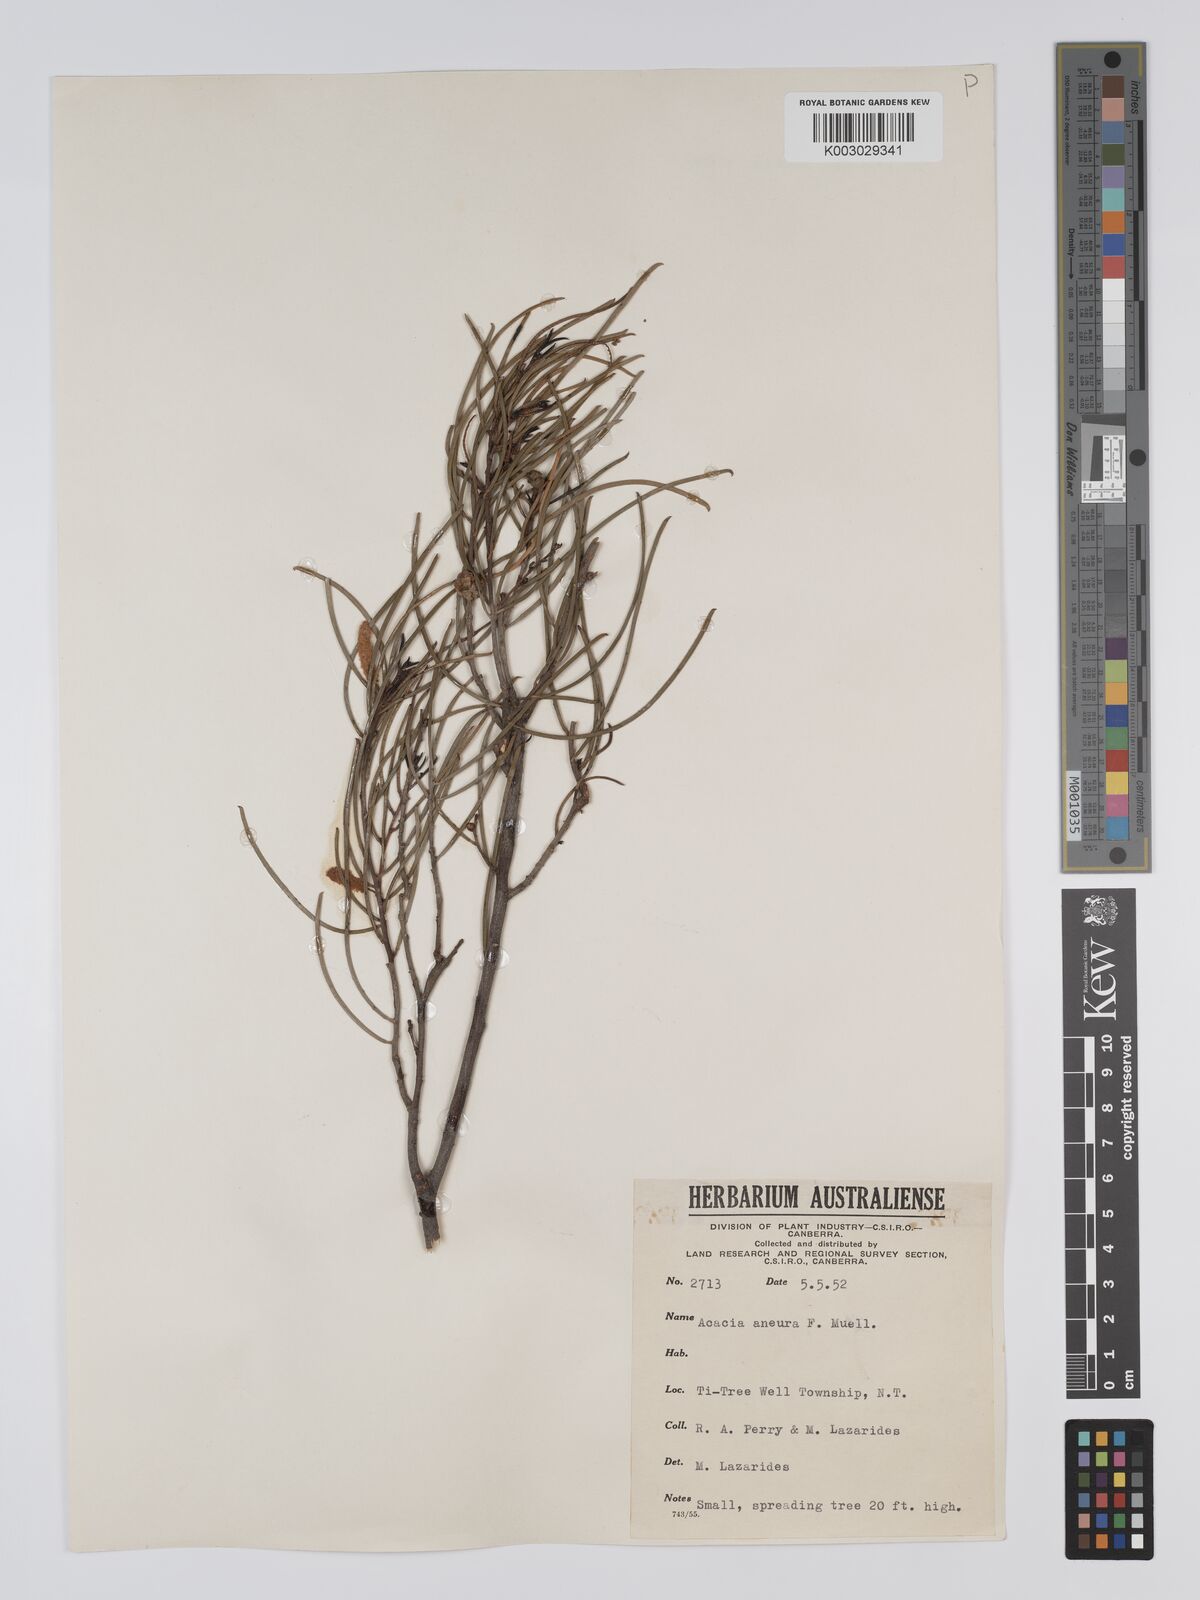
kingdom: Plantae
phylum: Tracheophyta
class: Magnoliopsida
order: Fabales
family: Fabaceae
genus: Acacia
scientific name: Acacia aneura
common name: Mulga
